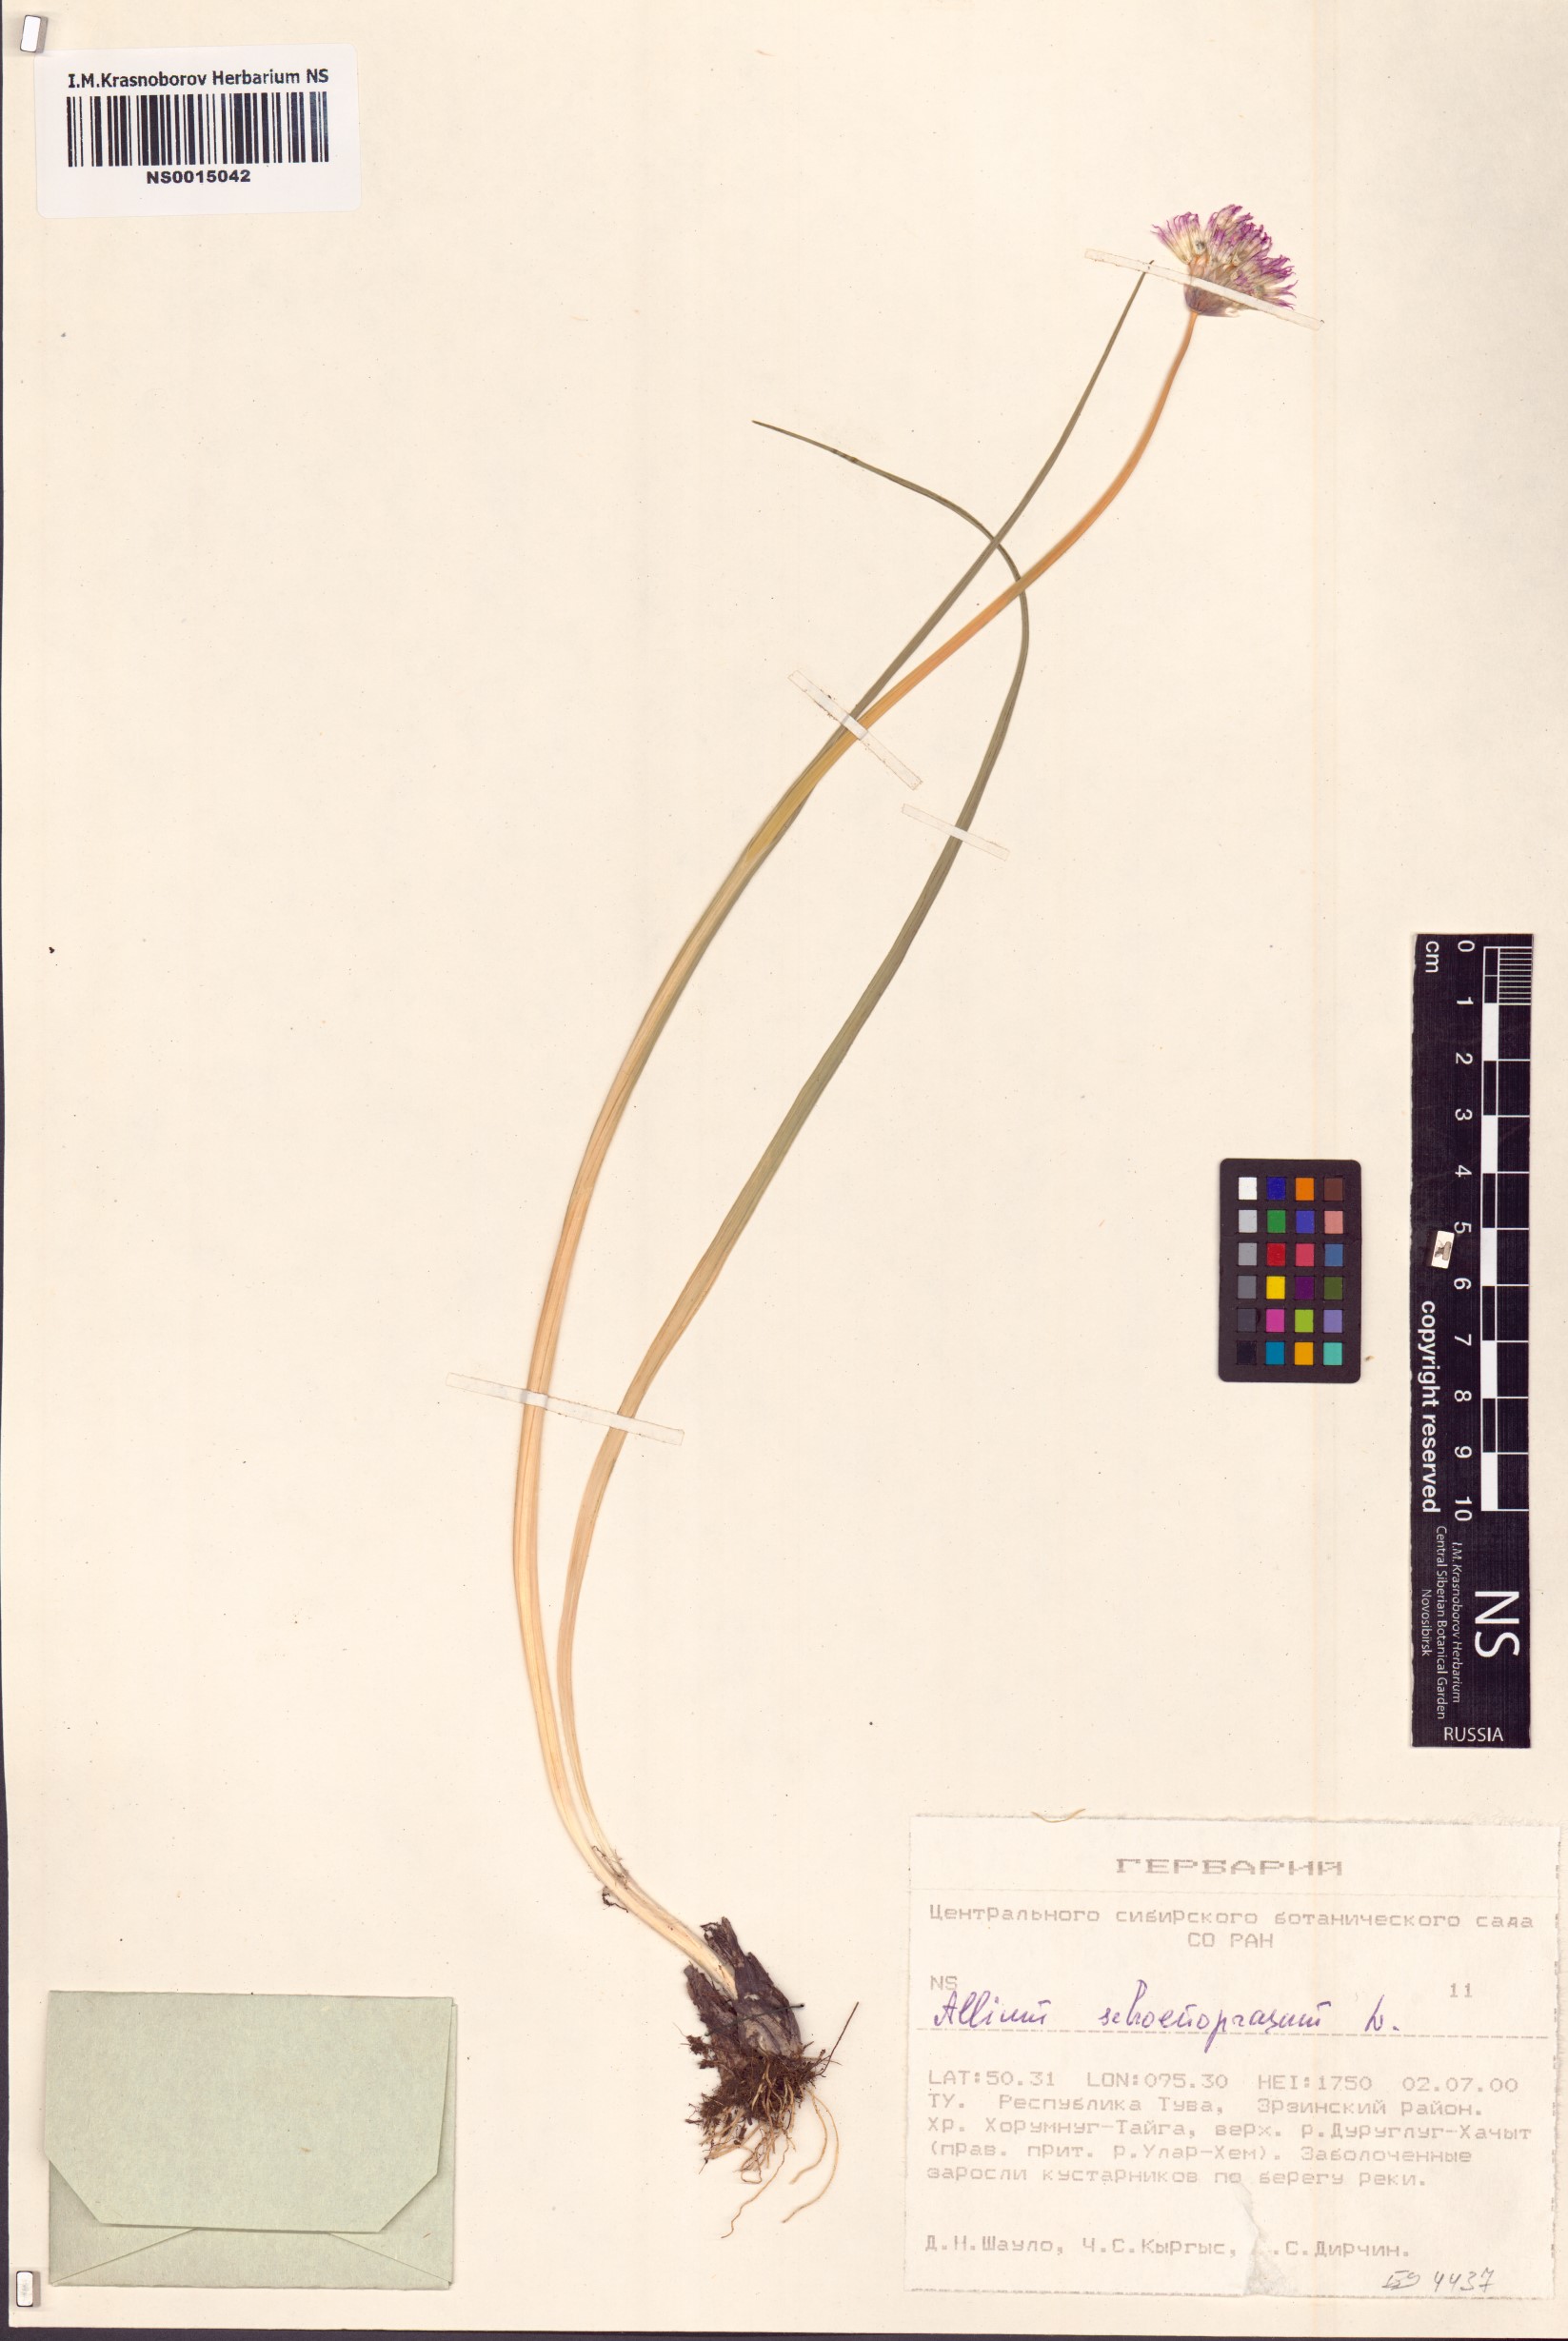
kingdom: Plantae
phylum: Tracheophyta
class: Liliopsida
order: Asparagales
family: Amaryllidaceae
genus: Allium
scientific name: Allium schoenoprasum
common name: Chives
